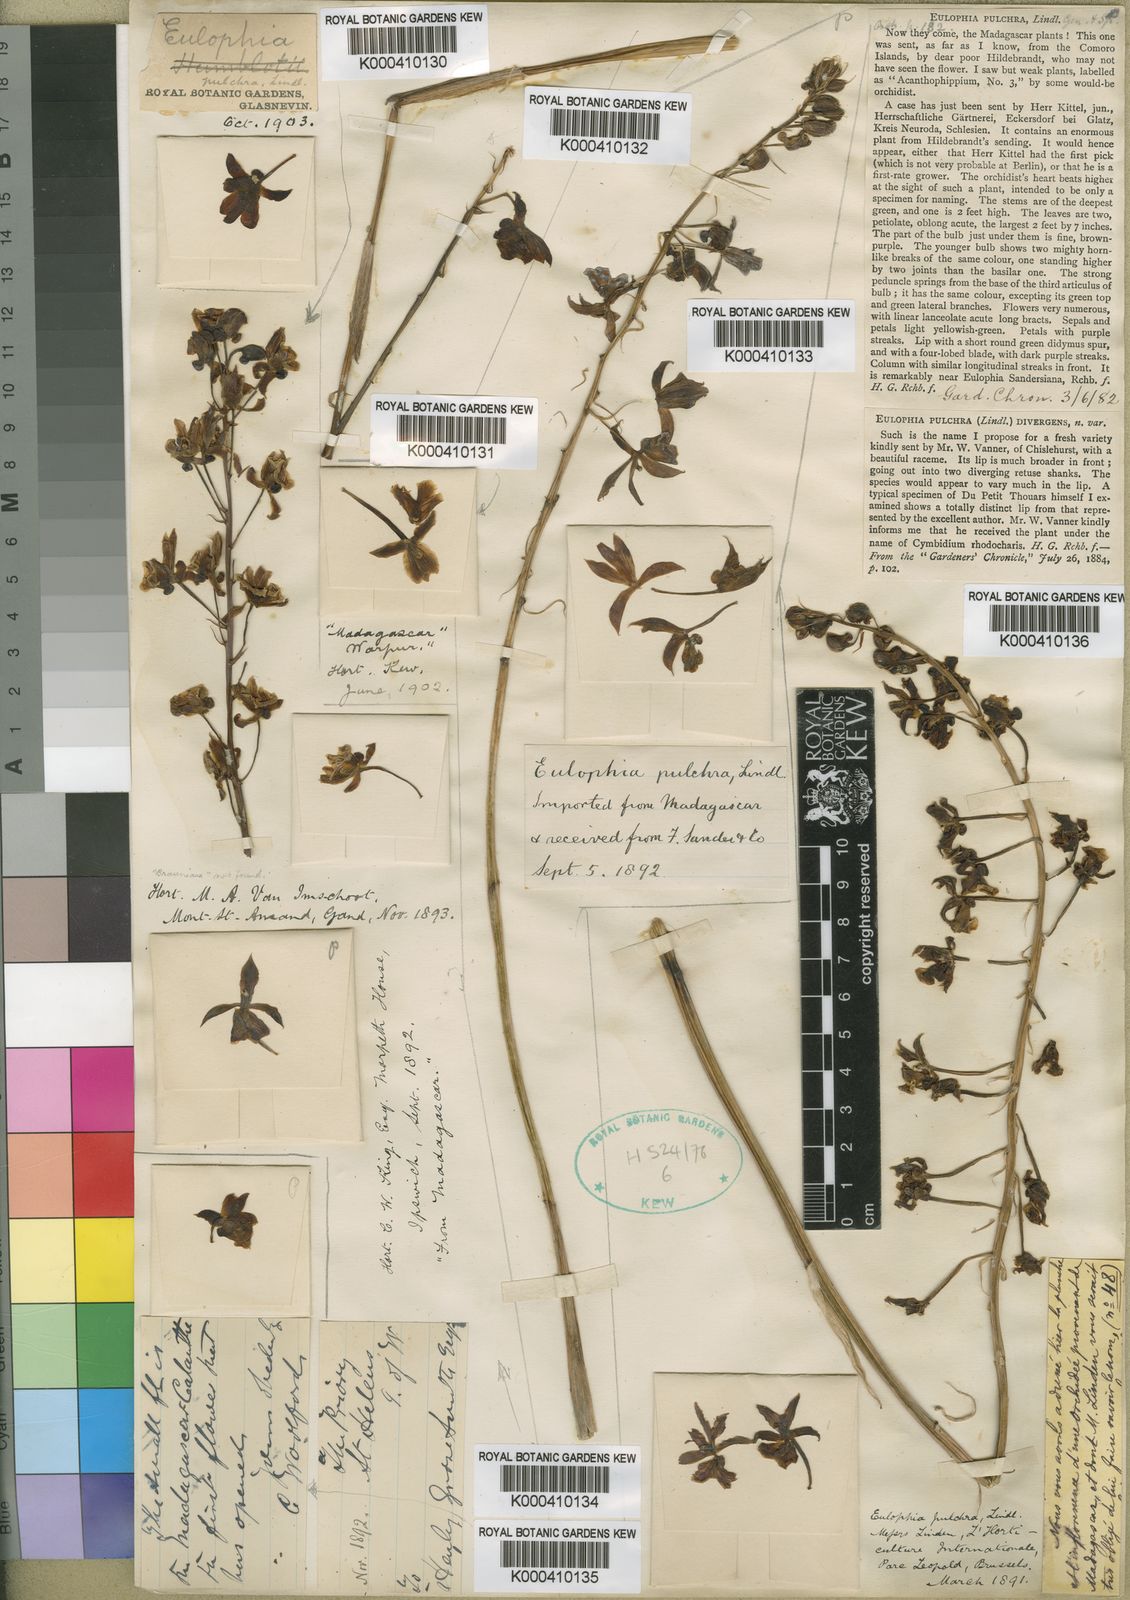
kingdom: Plantae
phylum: Tracheophyta
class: Liliopsida
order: Asparagales
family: Orchidaceae
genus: Eulophia
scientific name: Eulophia pulchra
